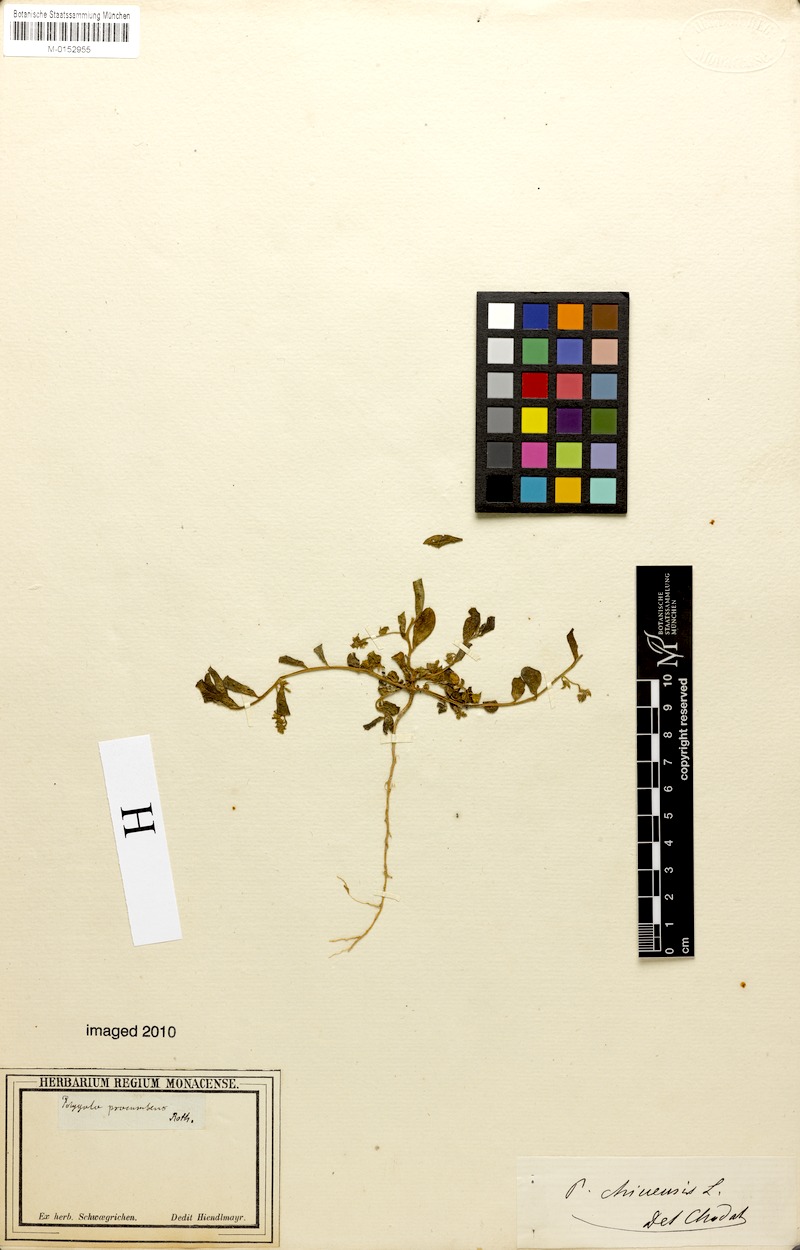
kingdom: Plantae
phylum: Tracheophyta
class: Magnoliopsida
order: Fabales
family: Polygalaceae
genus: Polygala
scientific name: Polygala glomerata
